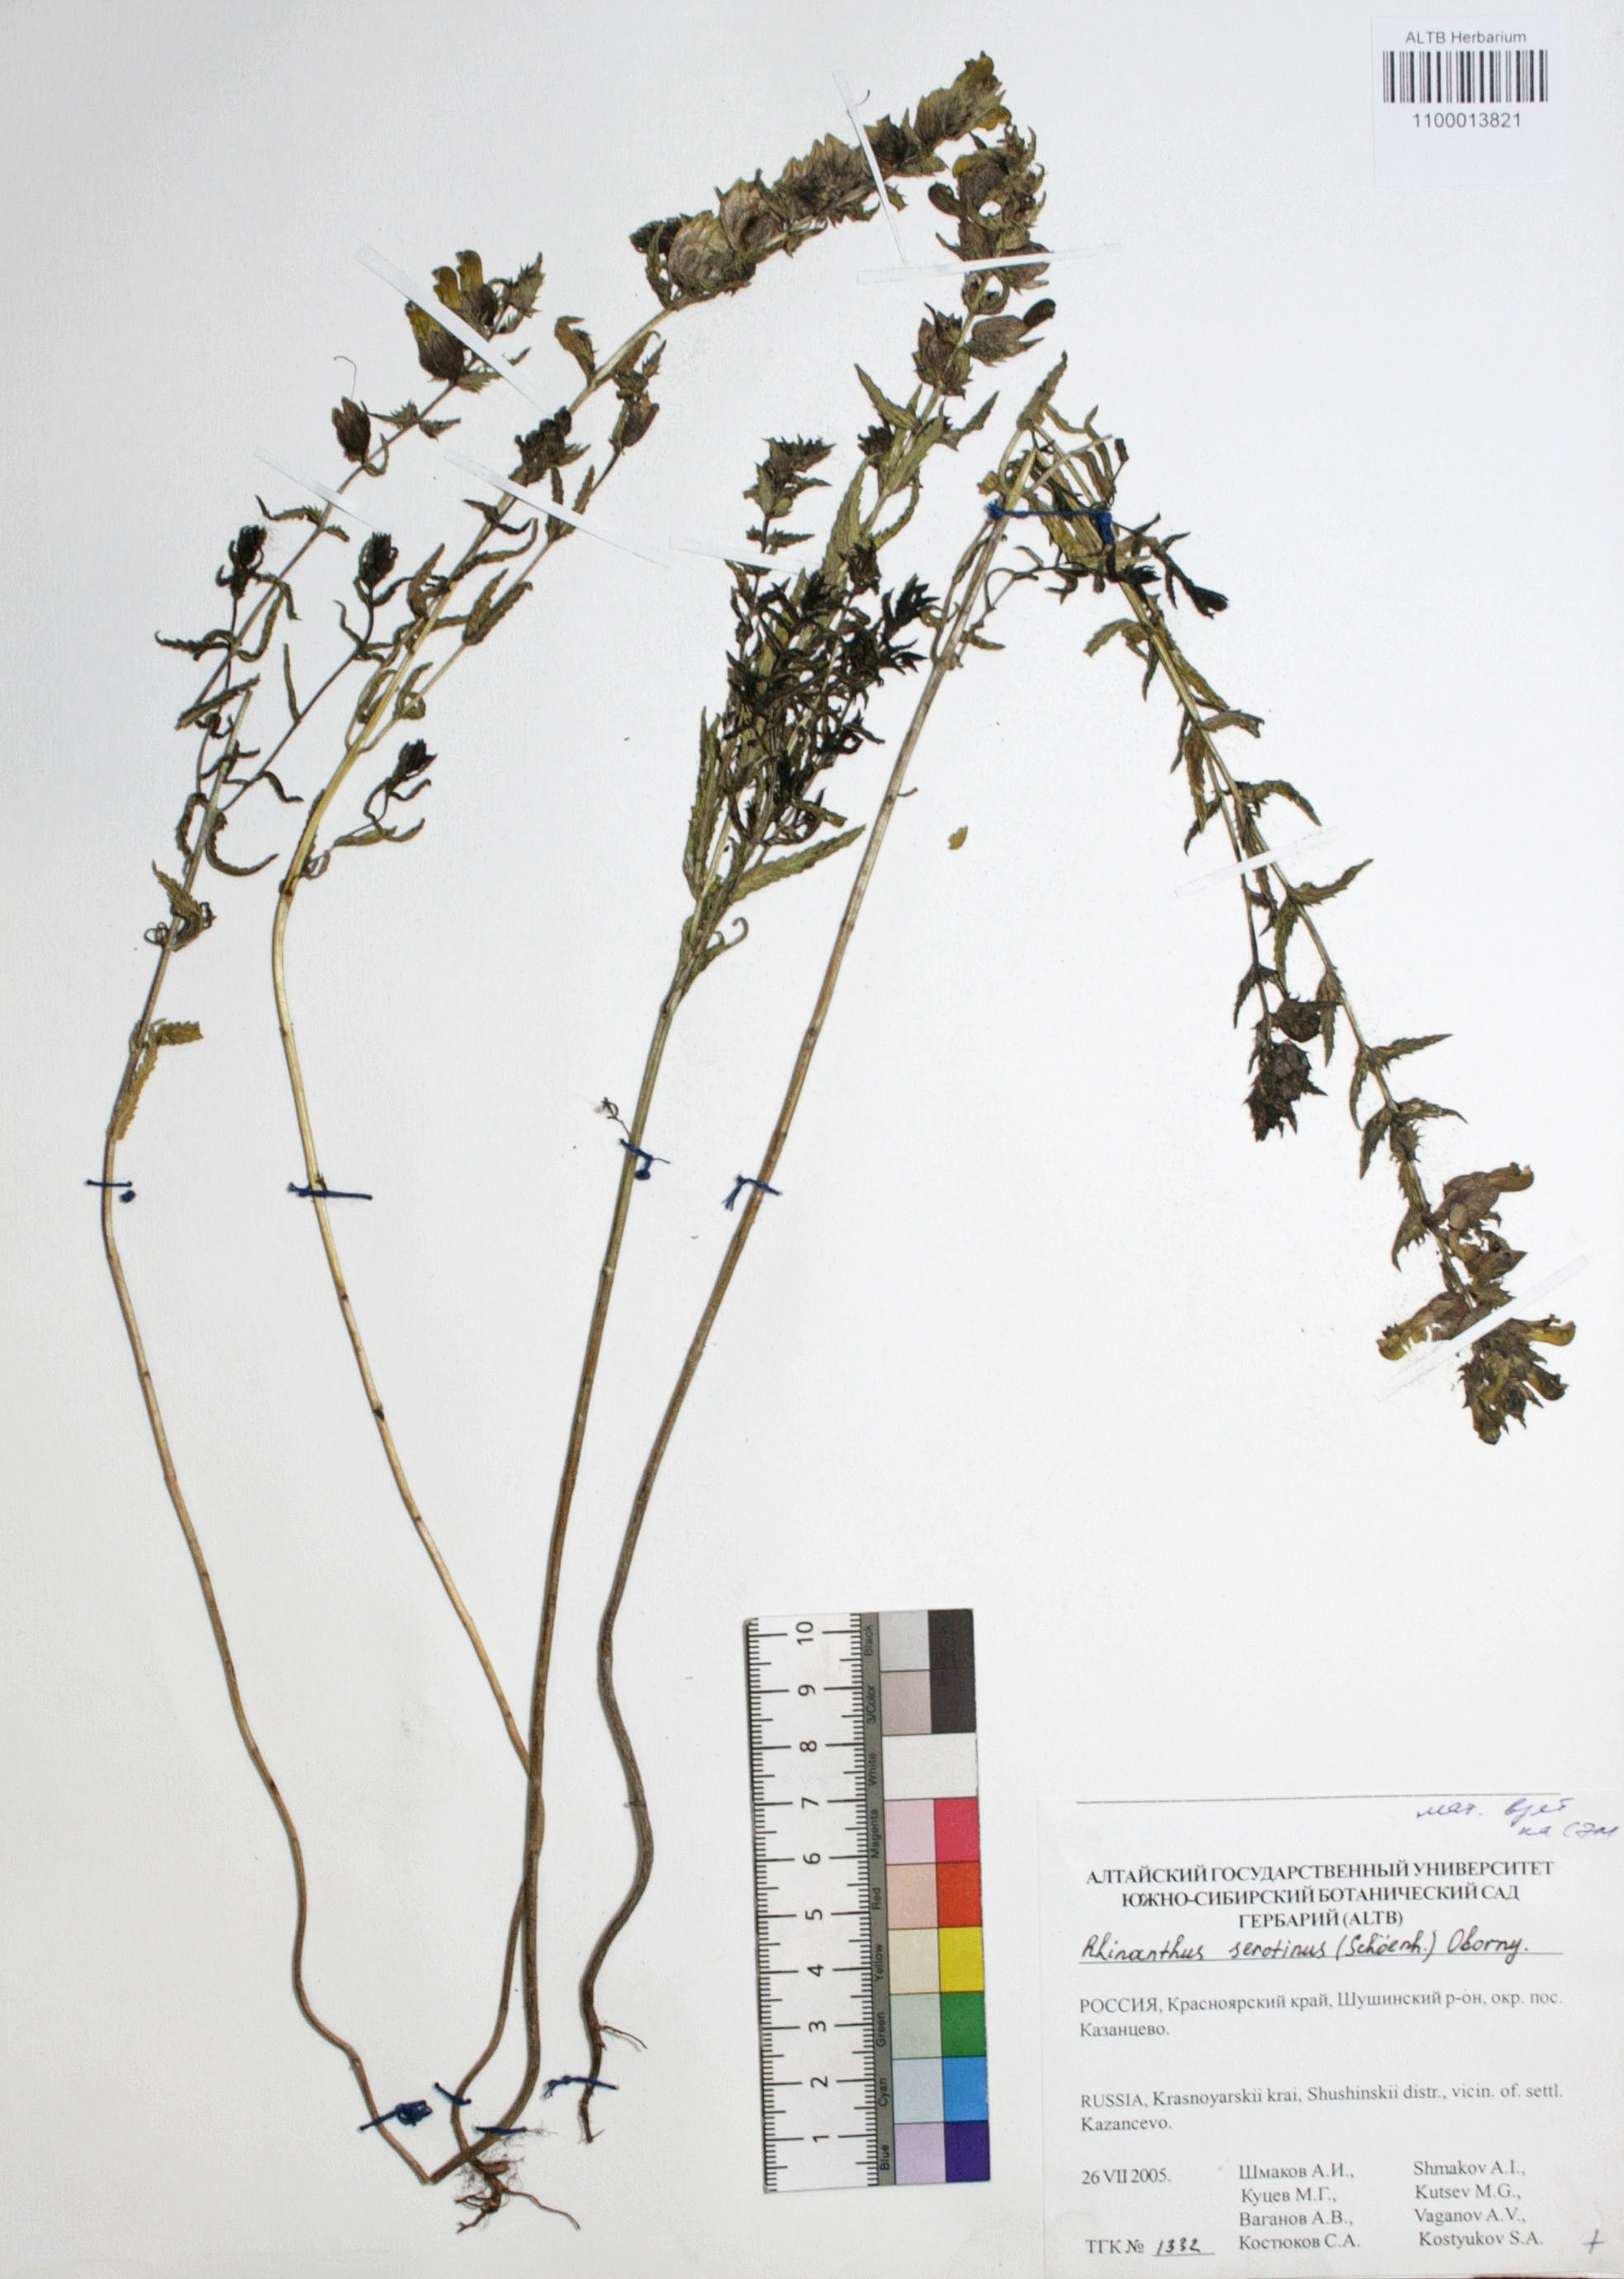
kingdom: Plantae
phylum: Tracheophyta
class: Magnoliopsida
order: Lamiales
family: Orobanchaceae
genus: Rhinanthus
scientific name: Rhinanthus serotinus
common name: Late-flowering yellow rattle
